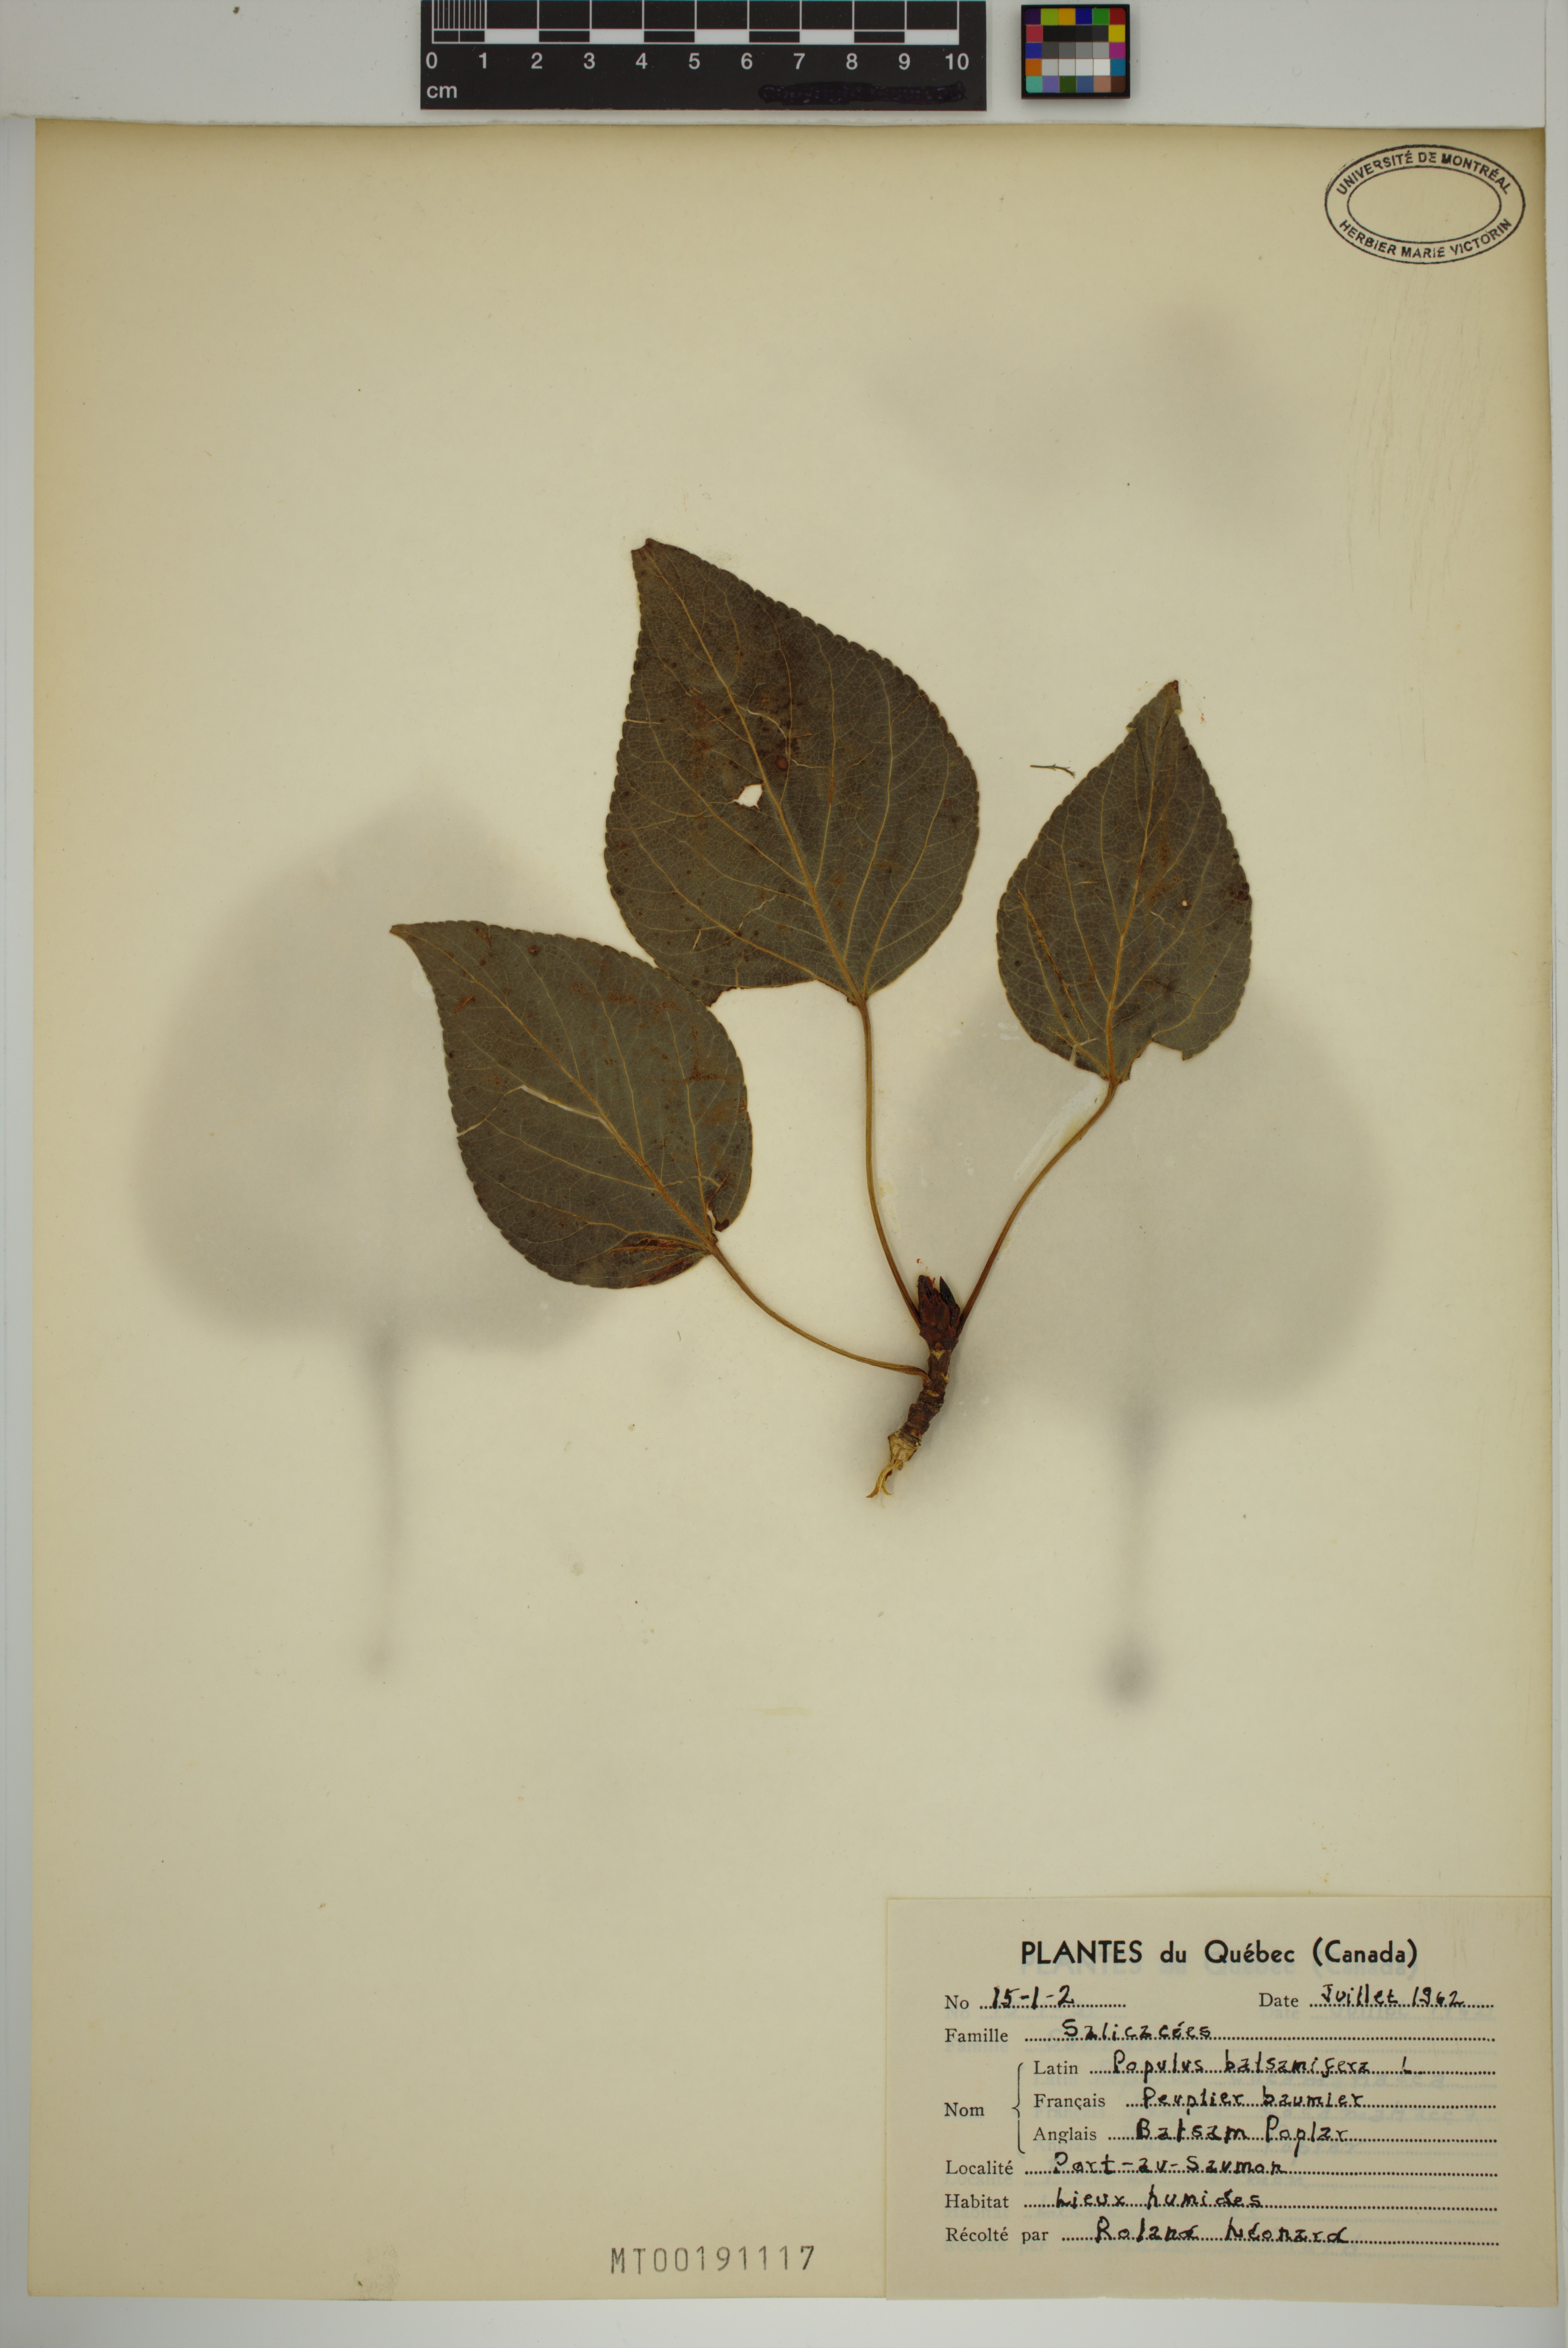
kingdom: Plantae
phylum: Tracheophyta
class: Magnoliopsida
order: Malpighiales
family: Salicaceae
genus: Populus
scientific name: Populus balsamifera
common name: Balsam poplar
